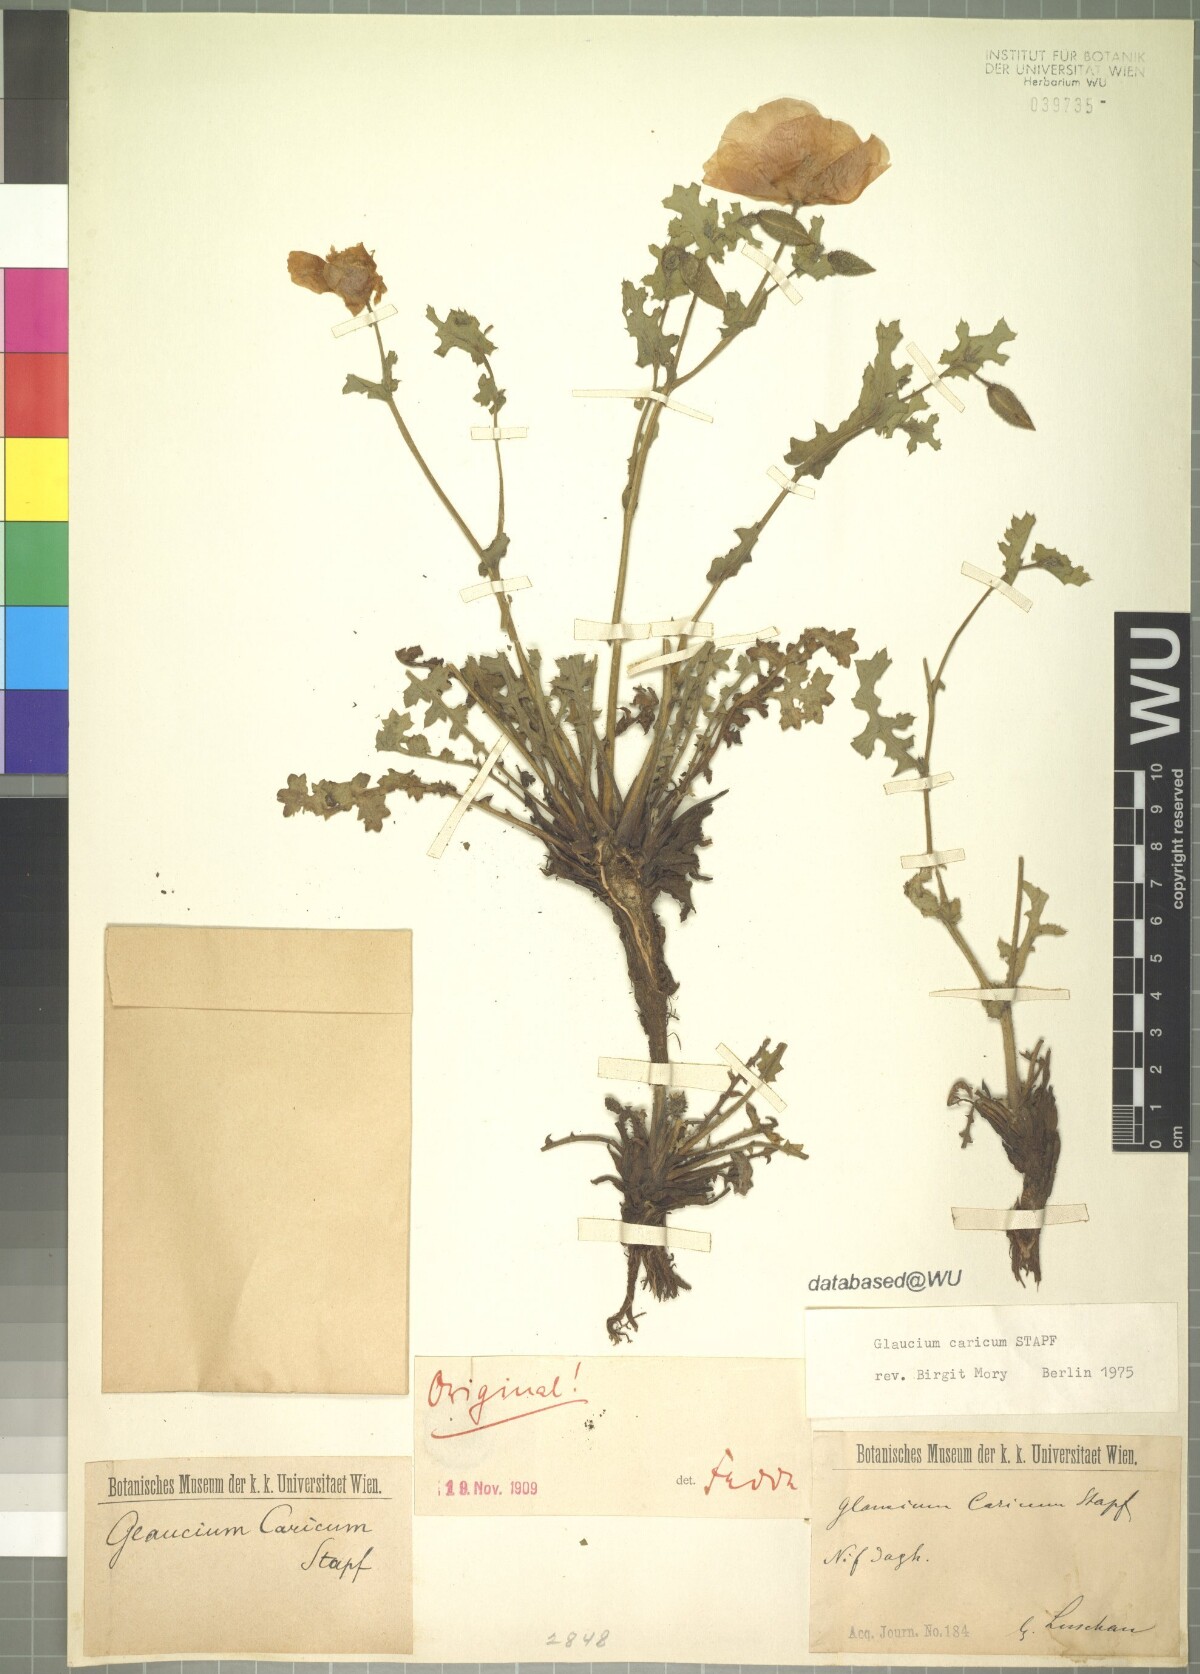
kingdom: Plantae
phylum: Tracheophyta
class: Magnoliopsida
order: Ranunculales
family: Papaveraceae
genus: Glaucium
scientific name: Glaucium corniculatum
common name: Red horned-poppy
